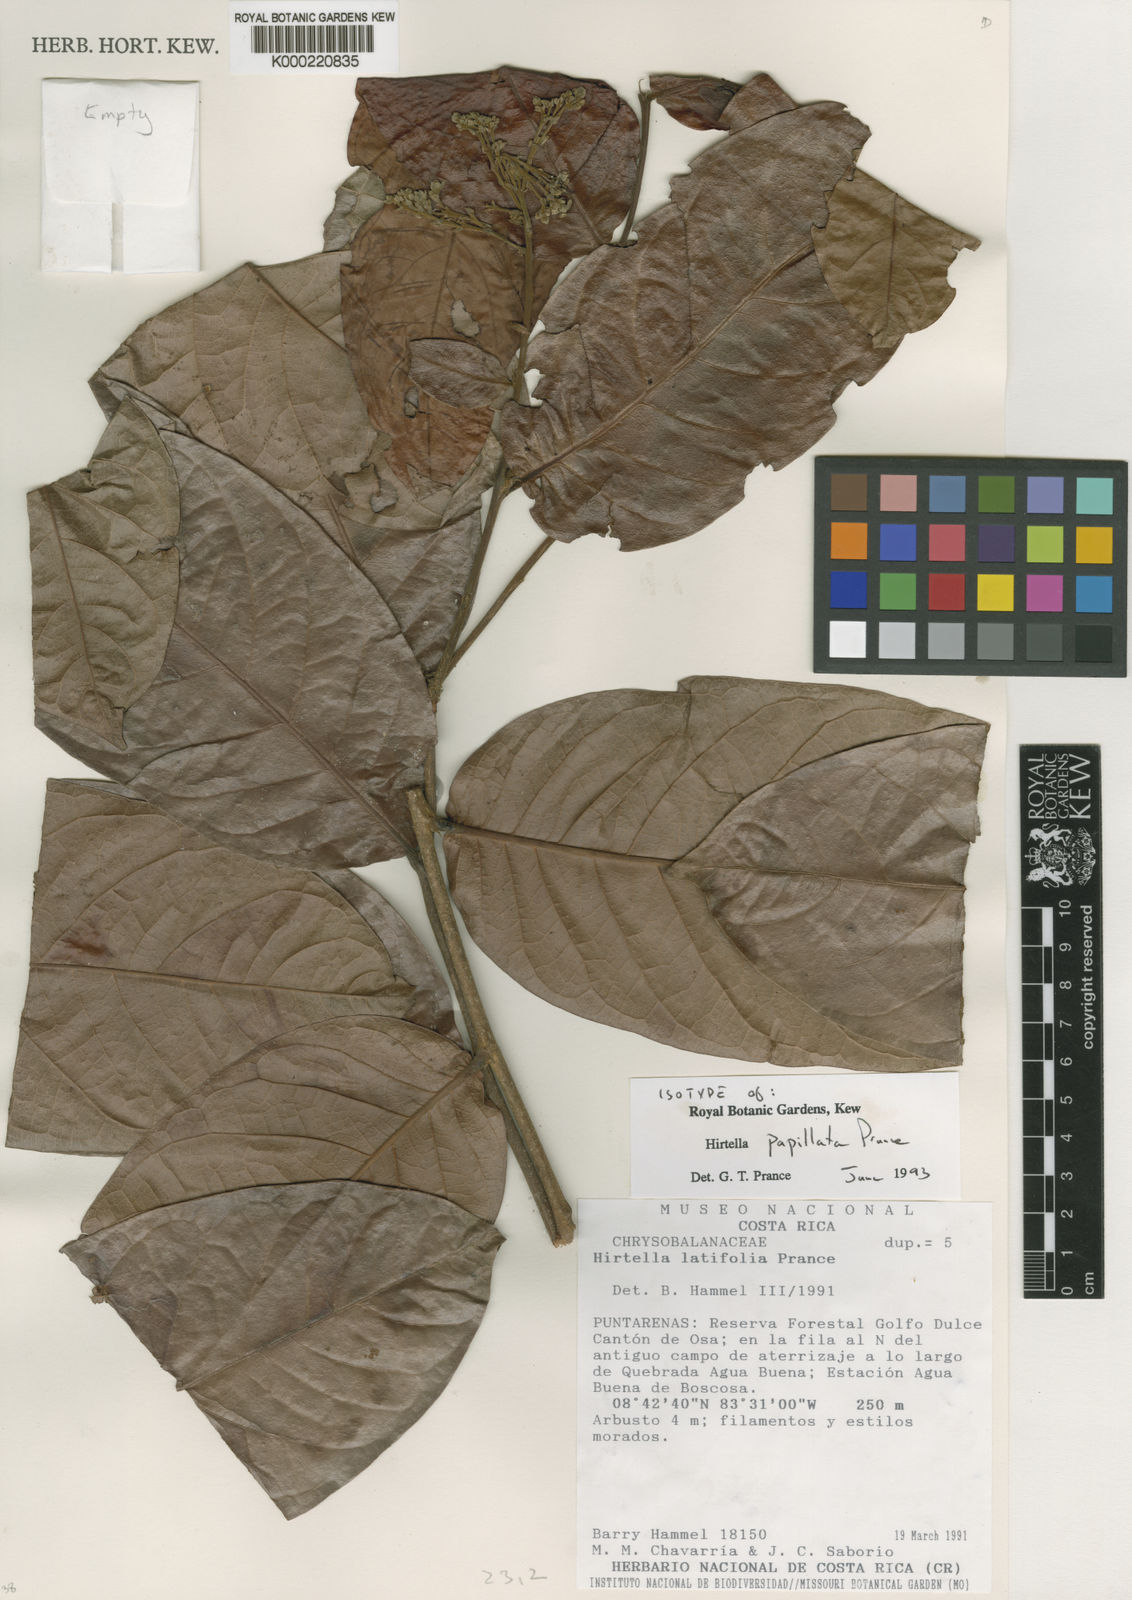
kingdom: Plantae
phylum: Tracheophyta
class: Magnoliopsida
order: Malpighiales
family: Chrysobalanaceae
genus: Hirtella
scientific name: Hirtella papillata
